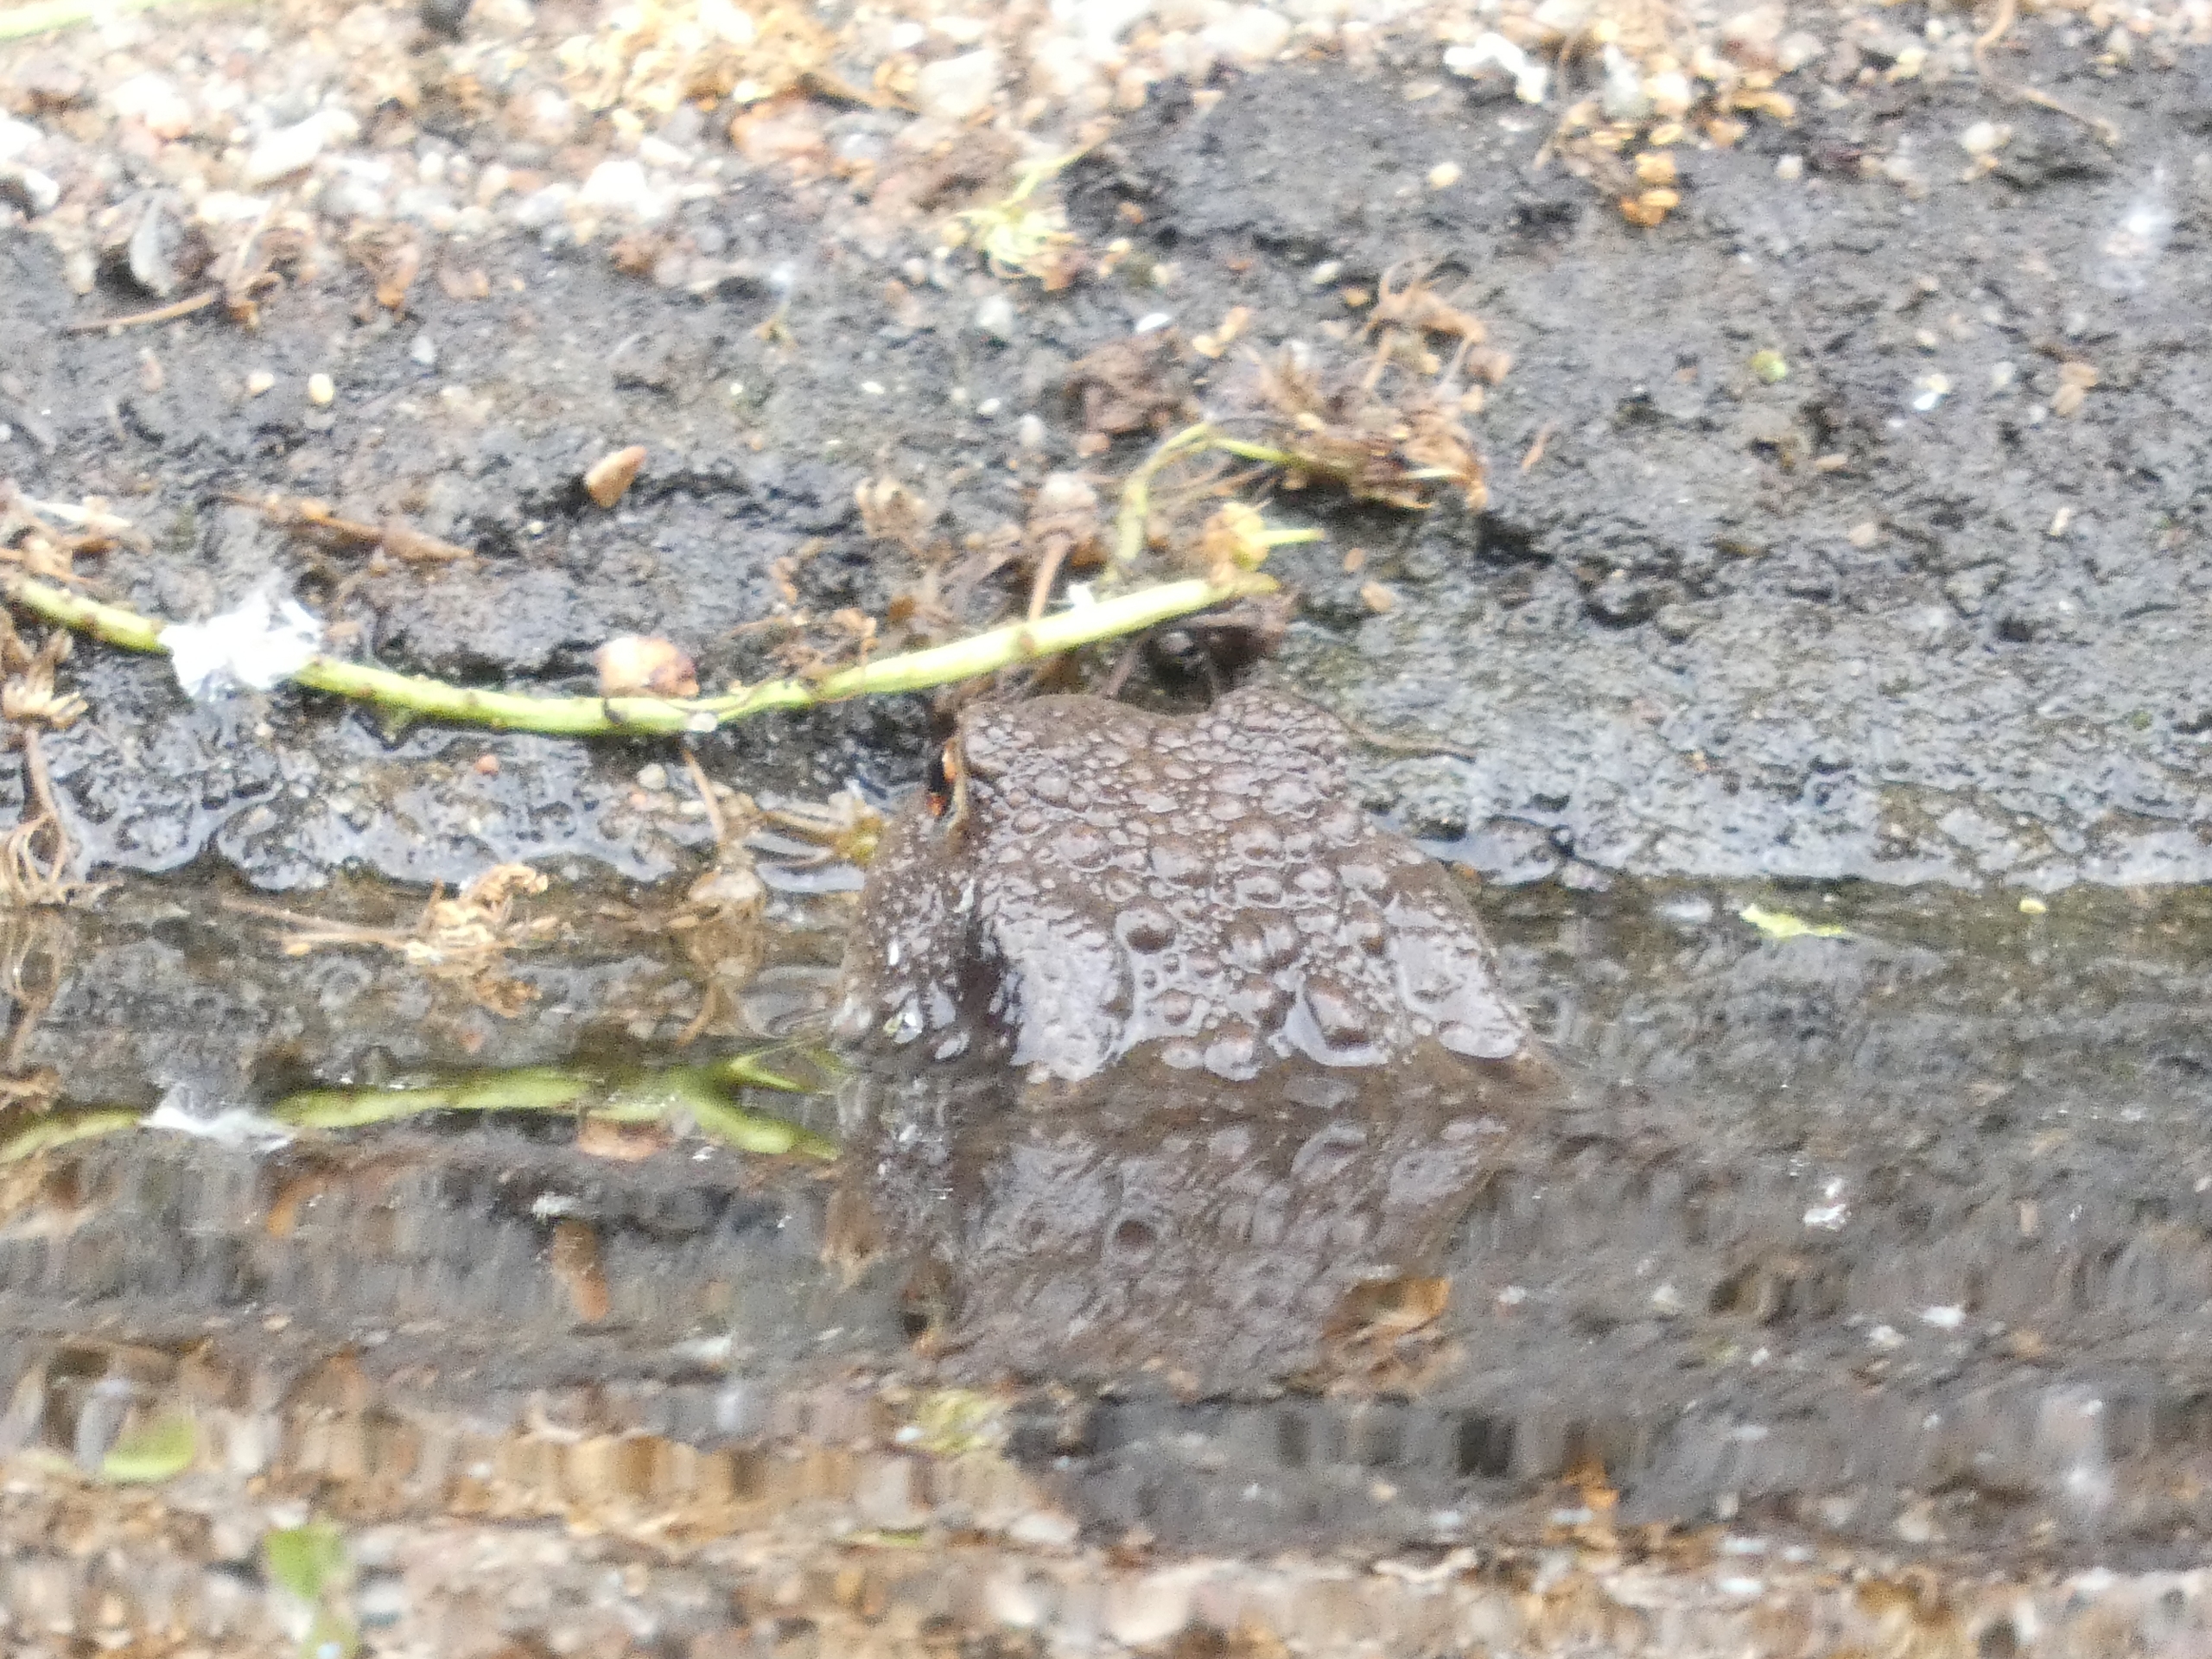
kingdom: Animalia
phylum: Chordata
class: Amphibia
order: Anura
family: Bufonidae
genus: Bufo
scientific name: Bufo bufo
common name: Skrubtudse
